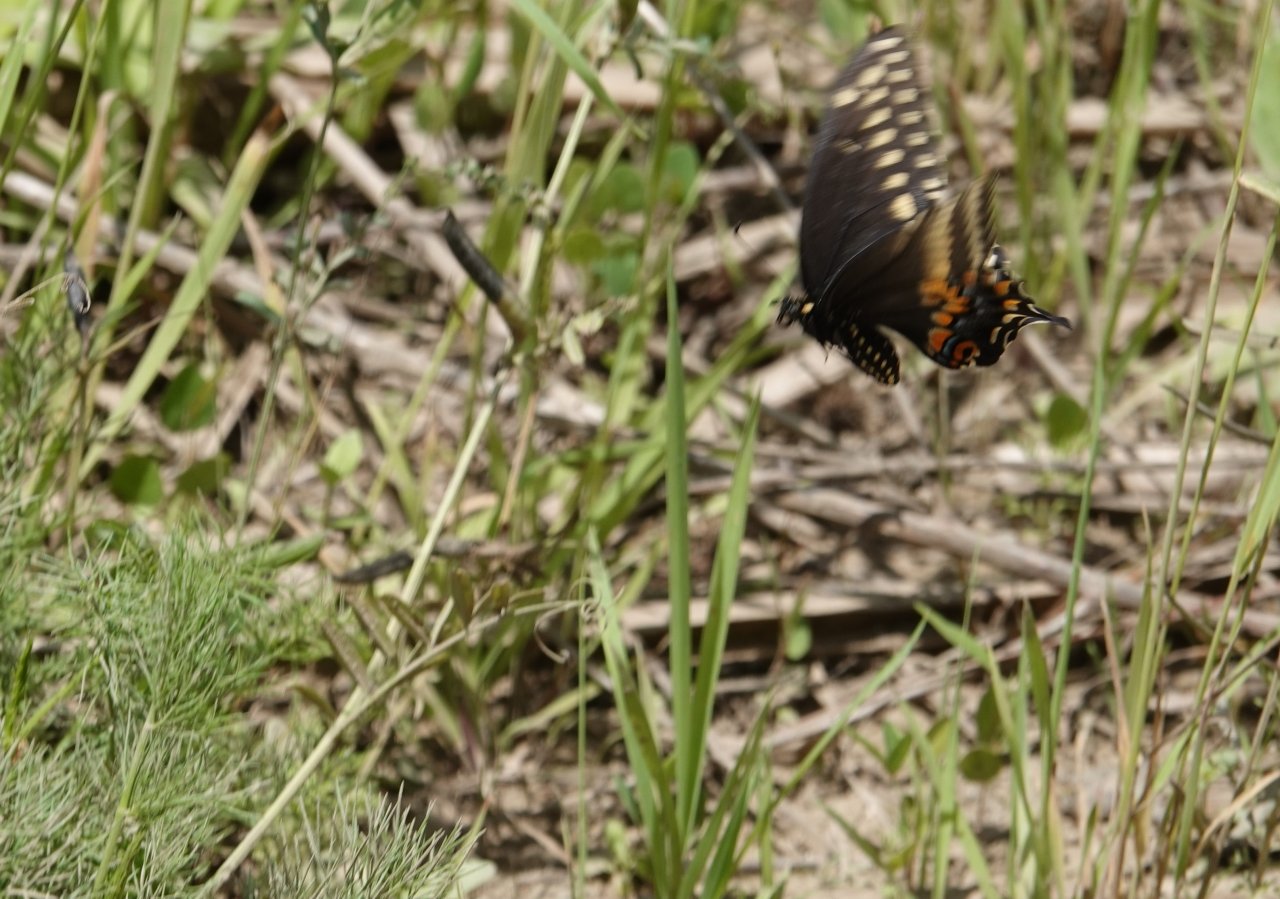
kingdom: Animalia
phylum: Arthropoda
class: Insecta
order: Lepidoptera
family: Papilionidae
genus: Papilio
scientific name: Papilio polyxenes
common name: Black Swallowtail
